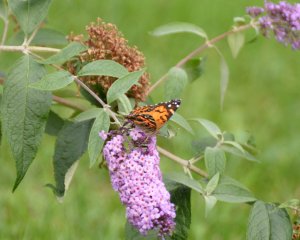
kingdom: Animalia
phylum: Arthropoda
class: Insecta
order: Lepidoptera
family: Nymphalidae
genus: Vanessa
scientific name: Vanessa virginiensis
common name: American Lady
